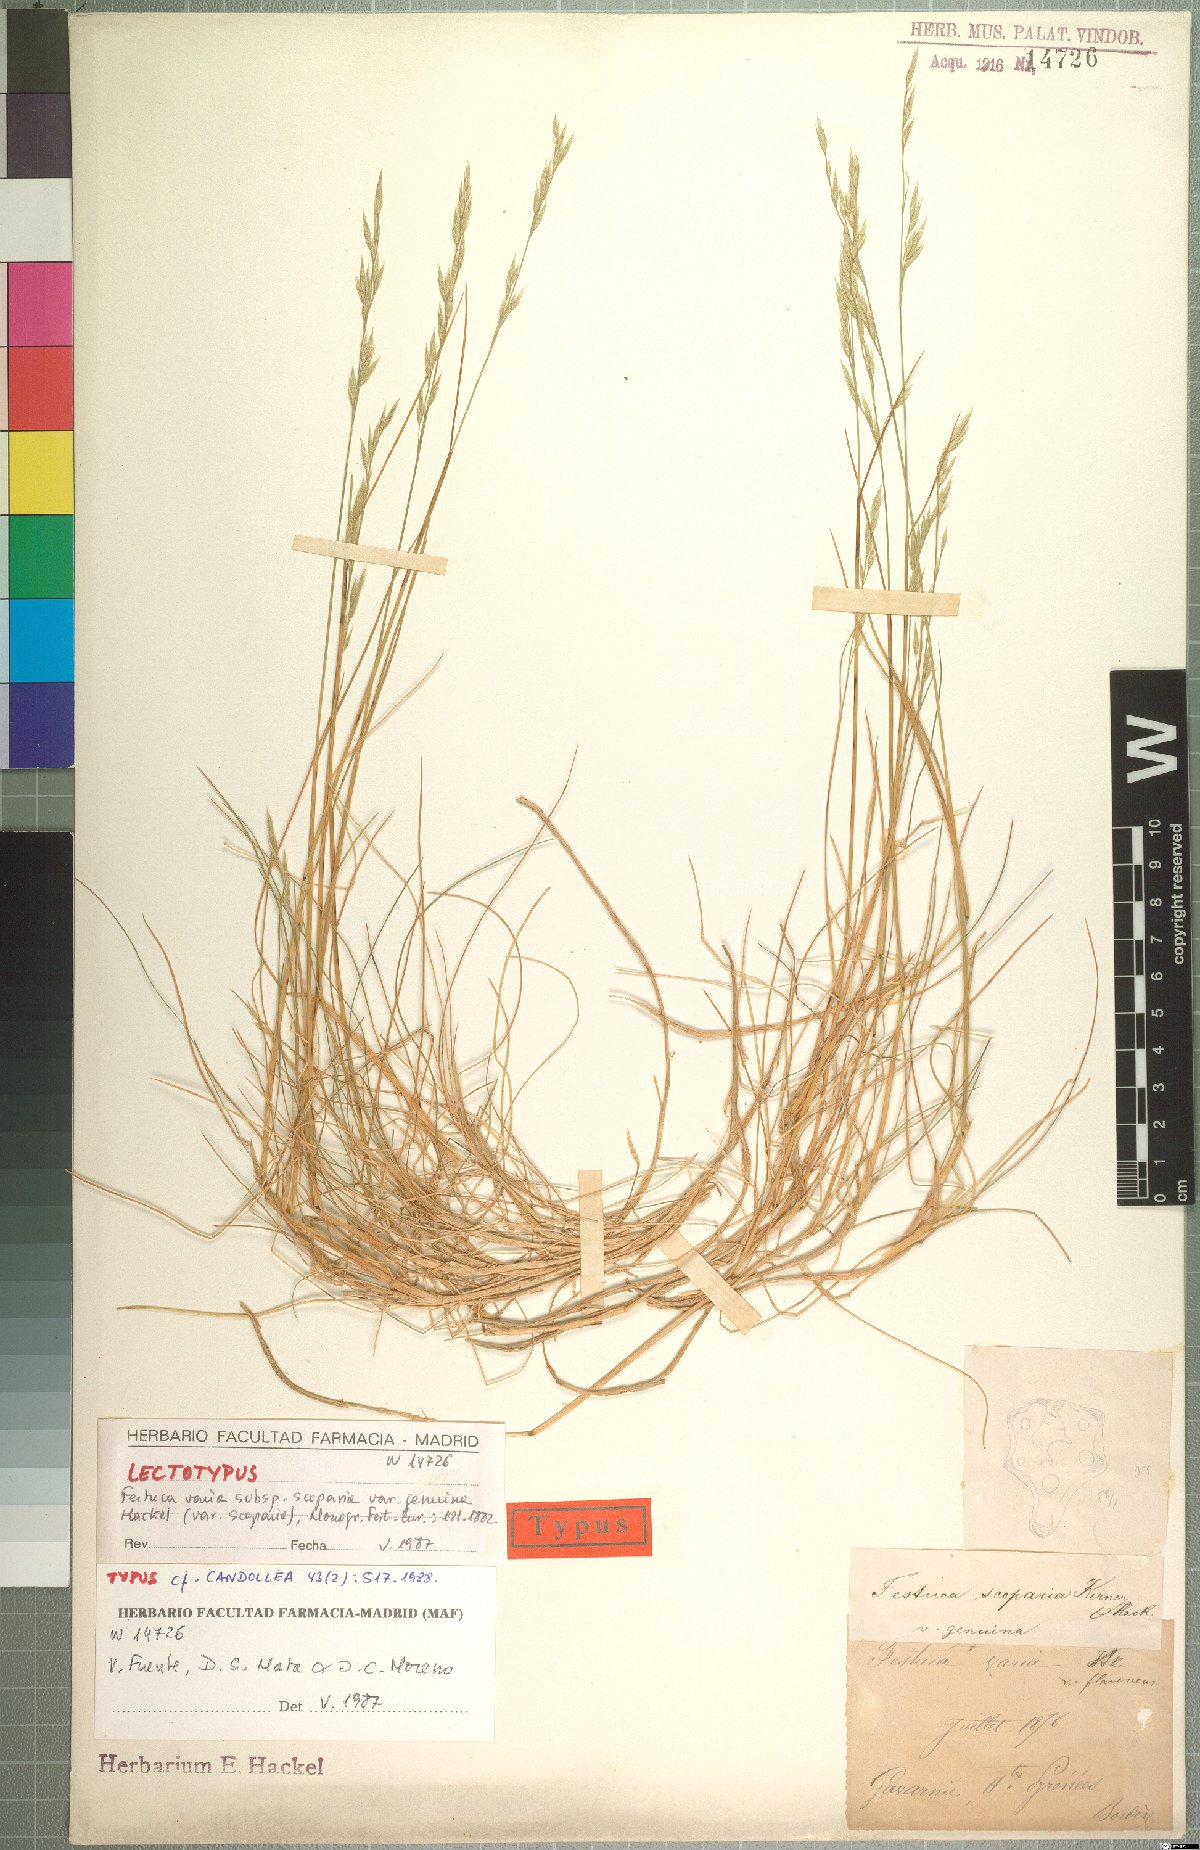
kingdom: Plantae
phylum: Tracheophyta
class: Liliopsida
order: Poales
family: Poaceae
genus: Festuca
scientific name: Festuca gautieri
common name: Spiky fescue
